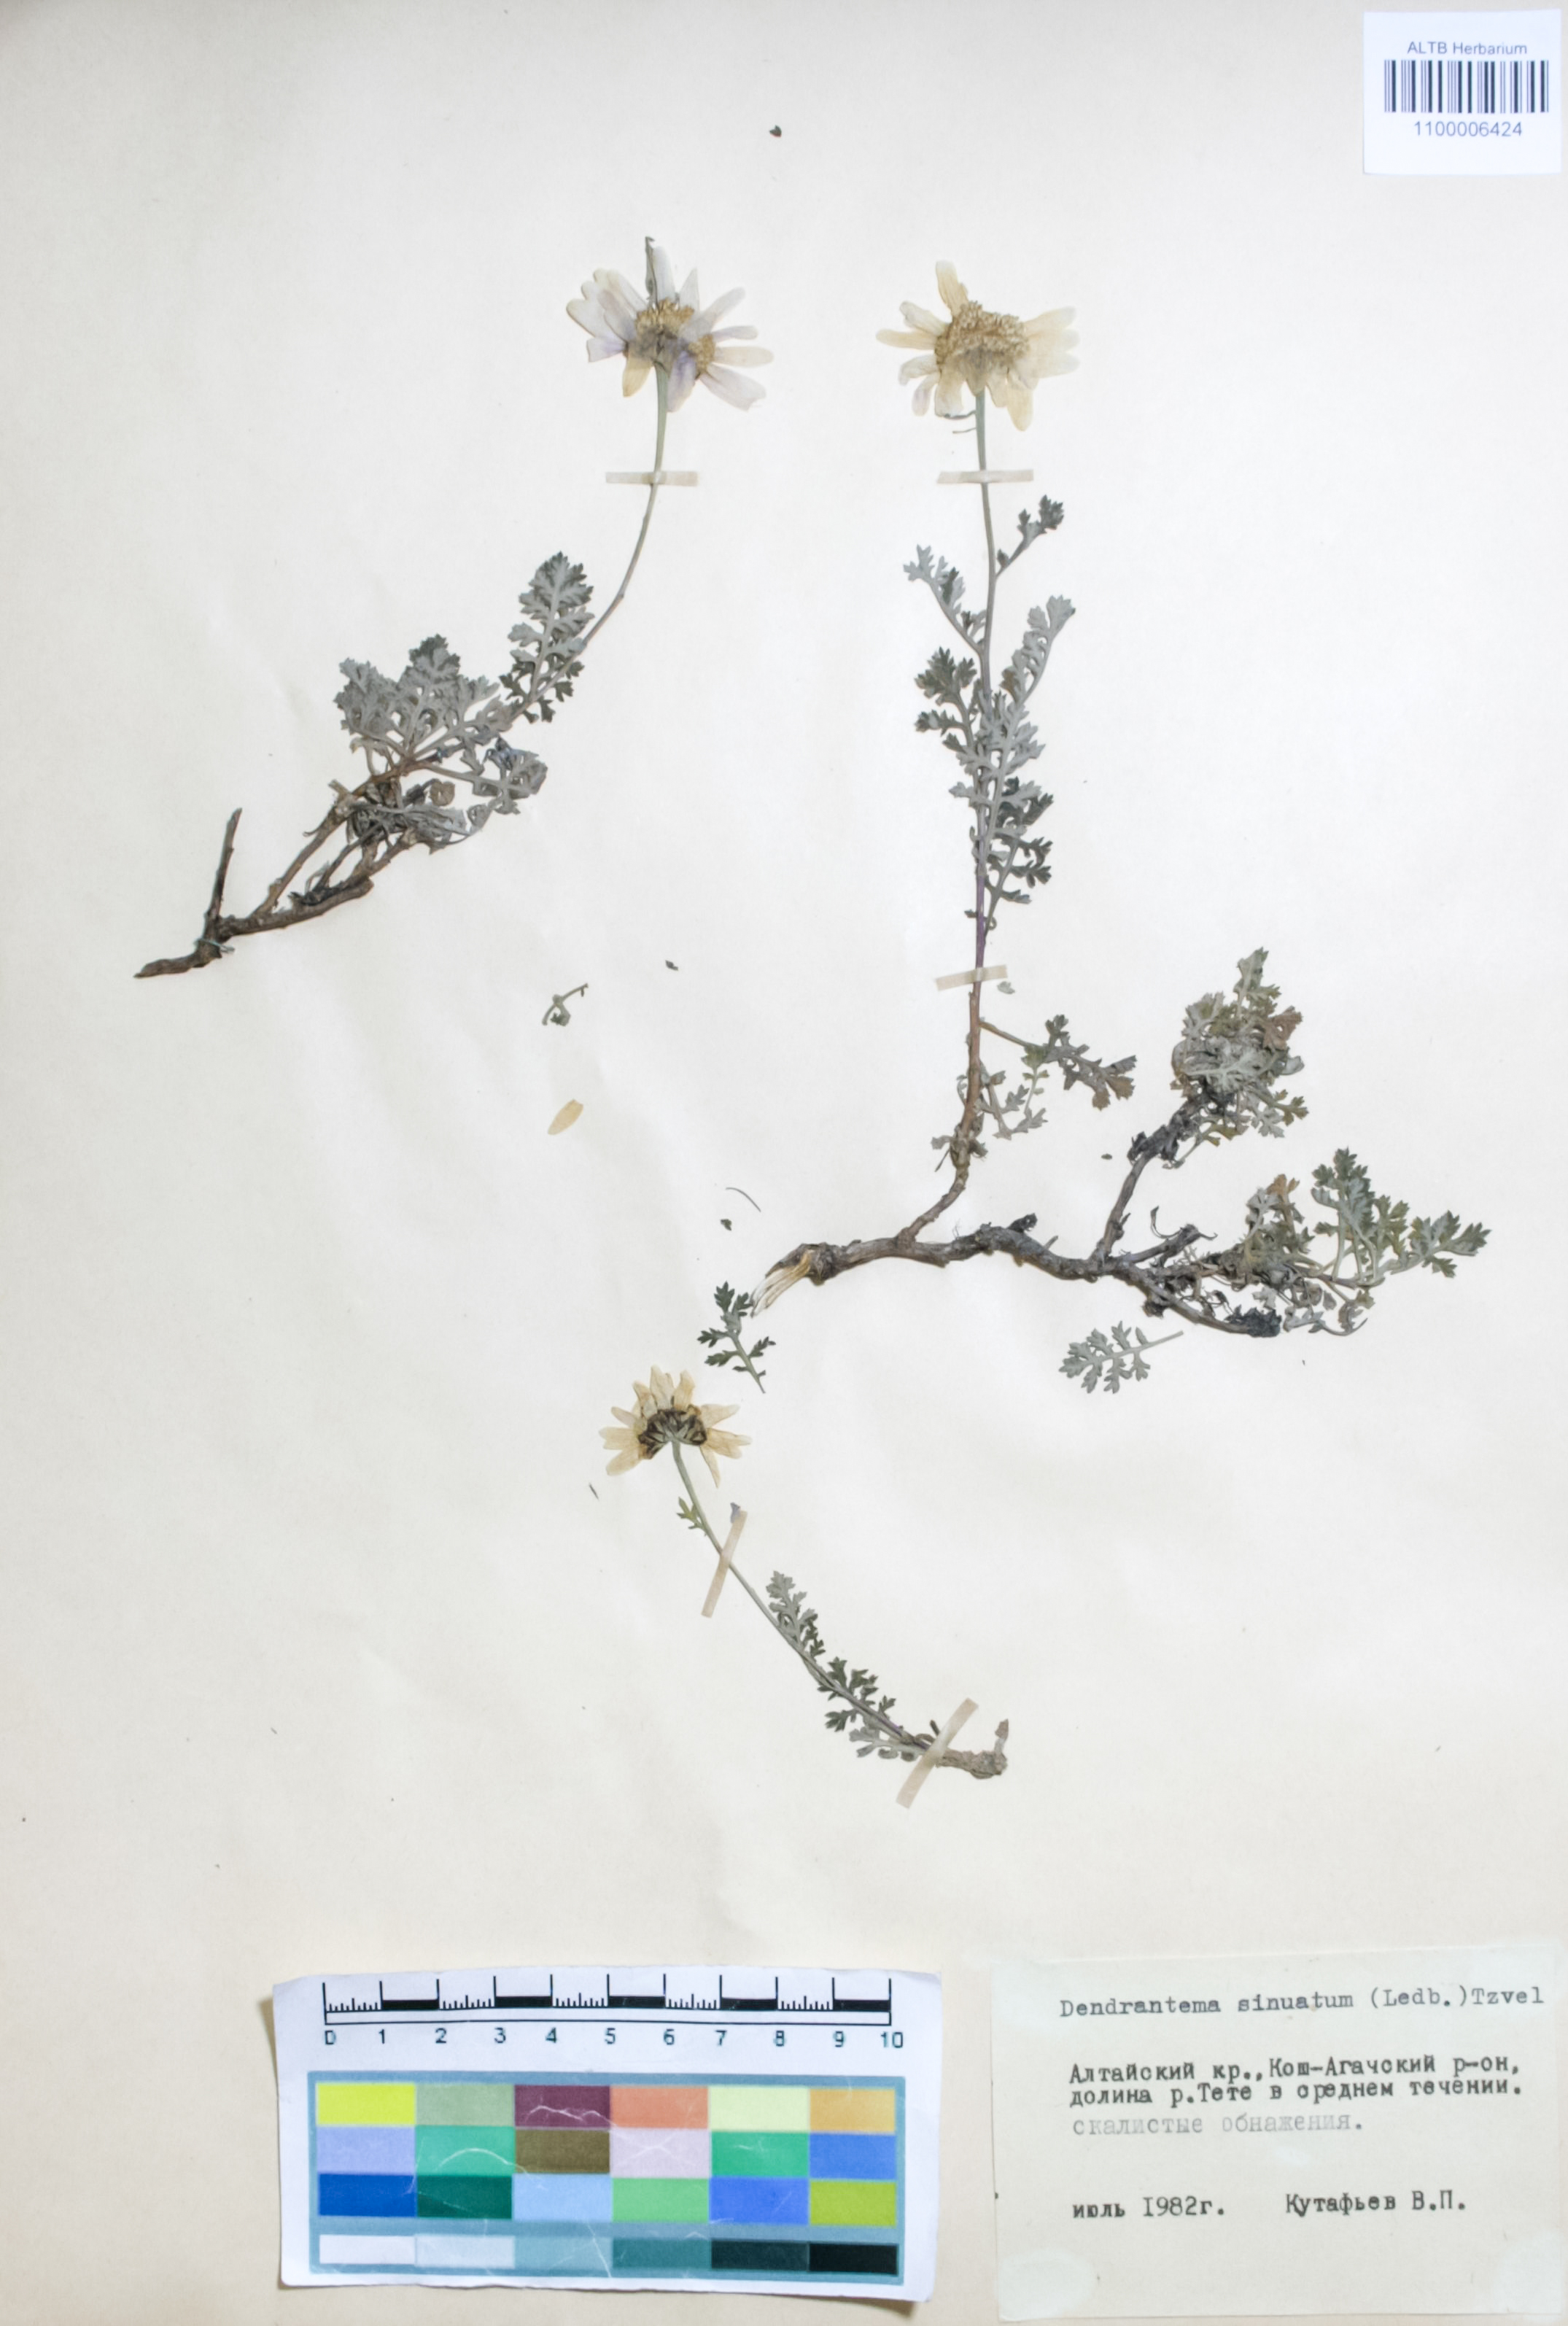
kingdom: Plantae
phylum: Tracheophyta
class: Magnoliopsida
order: Asterales
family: Asteraceae
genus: Chrysanthemum
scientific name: Chrysanthemum sinuatum
